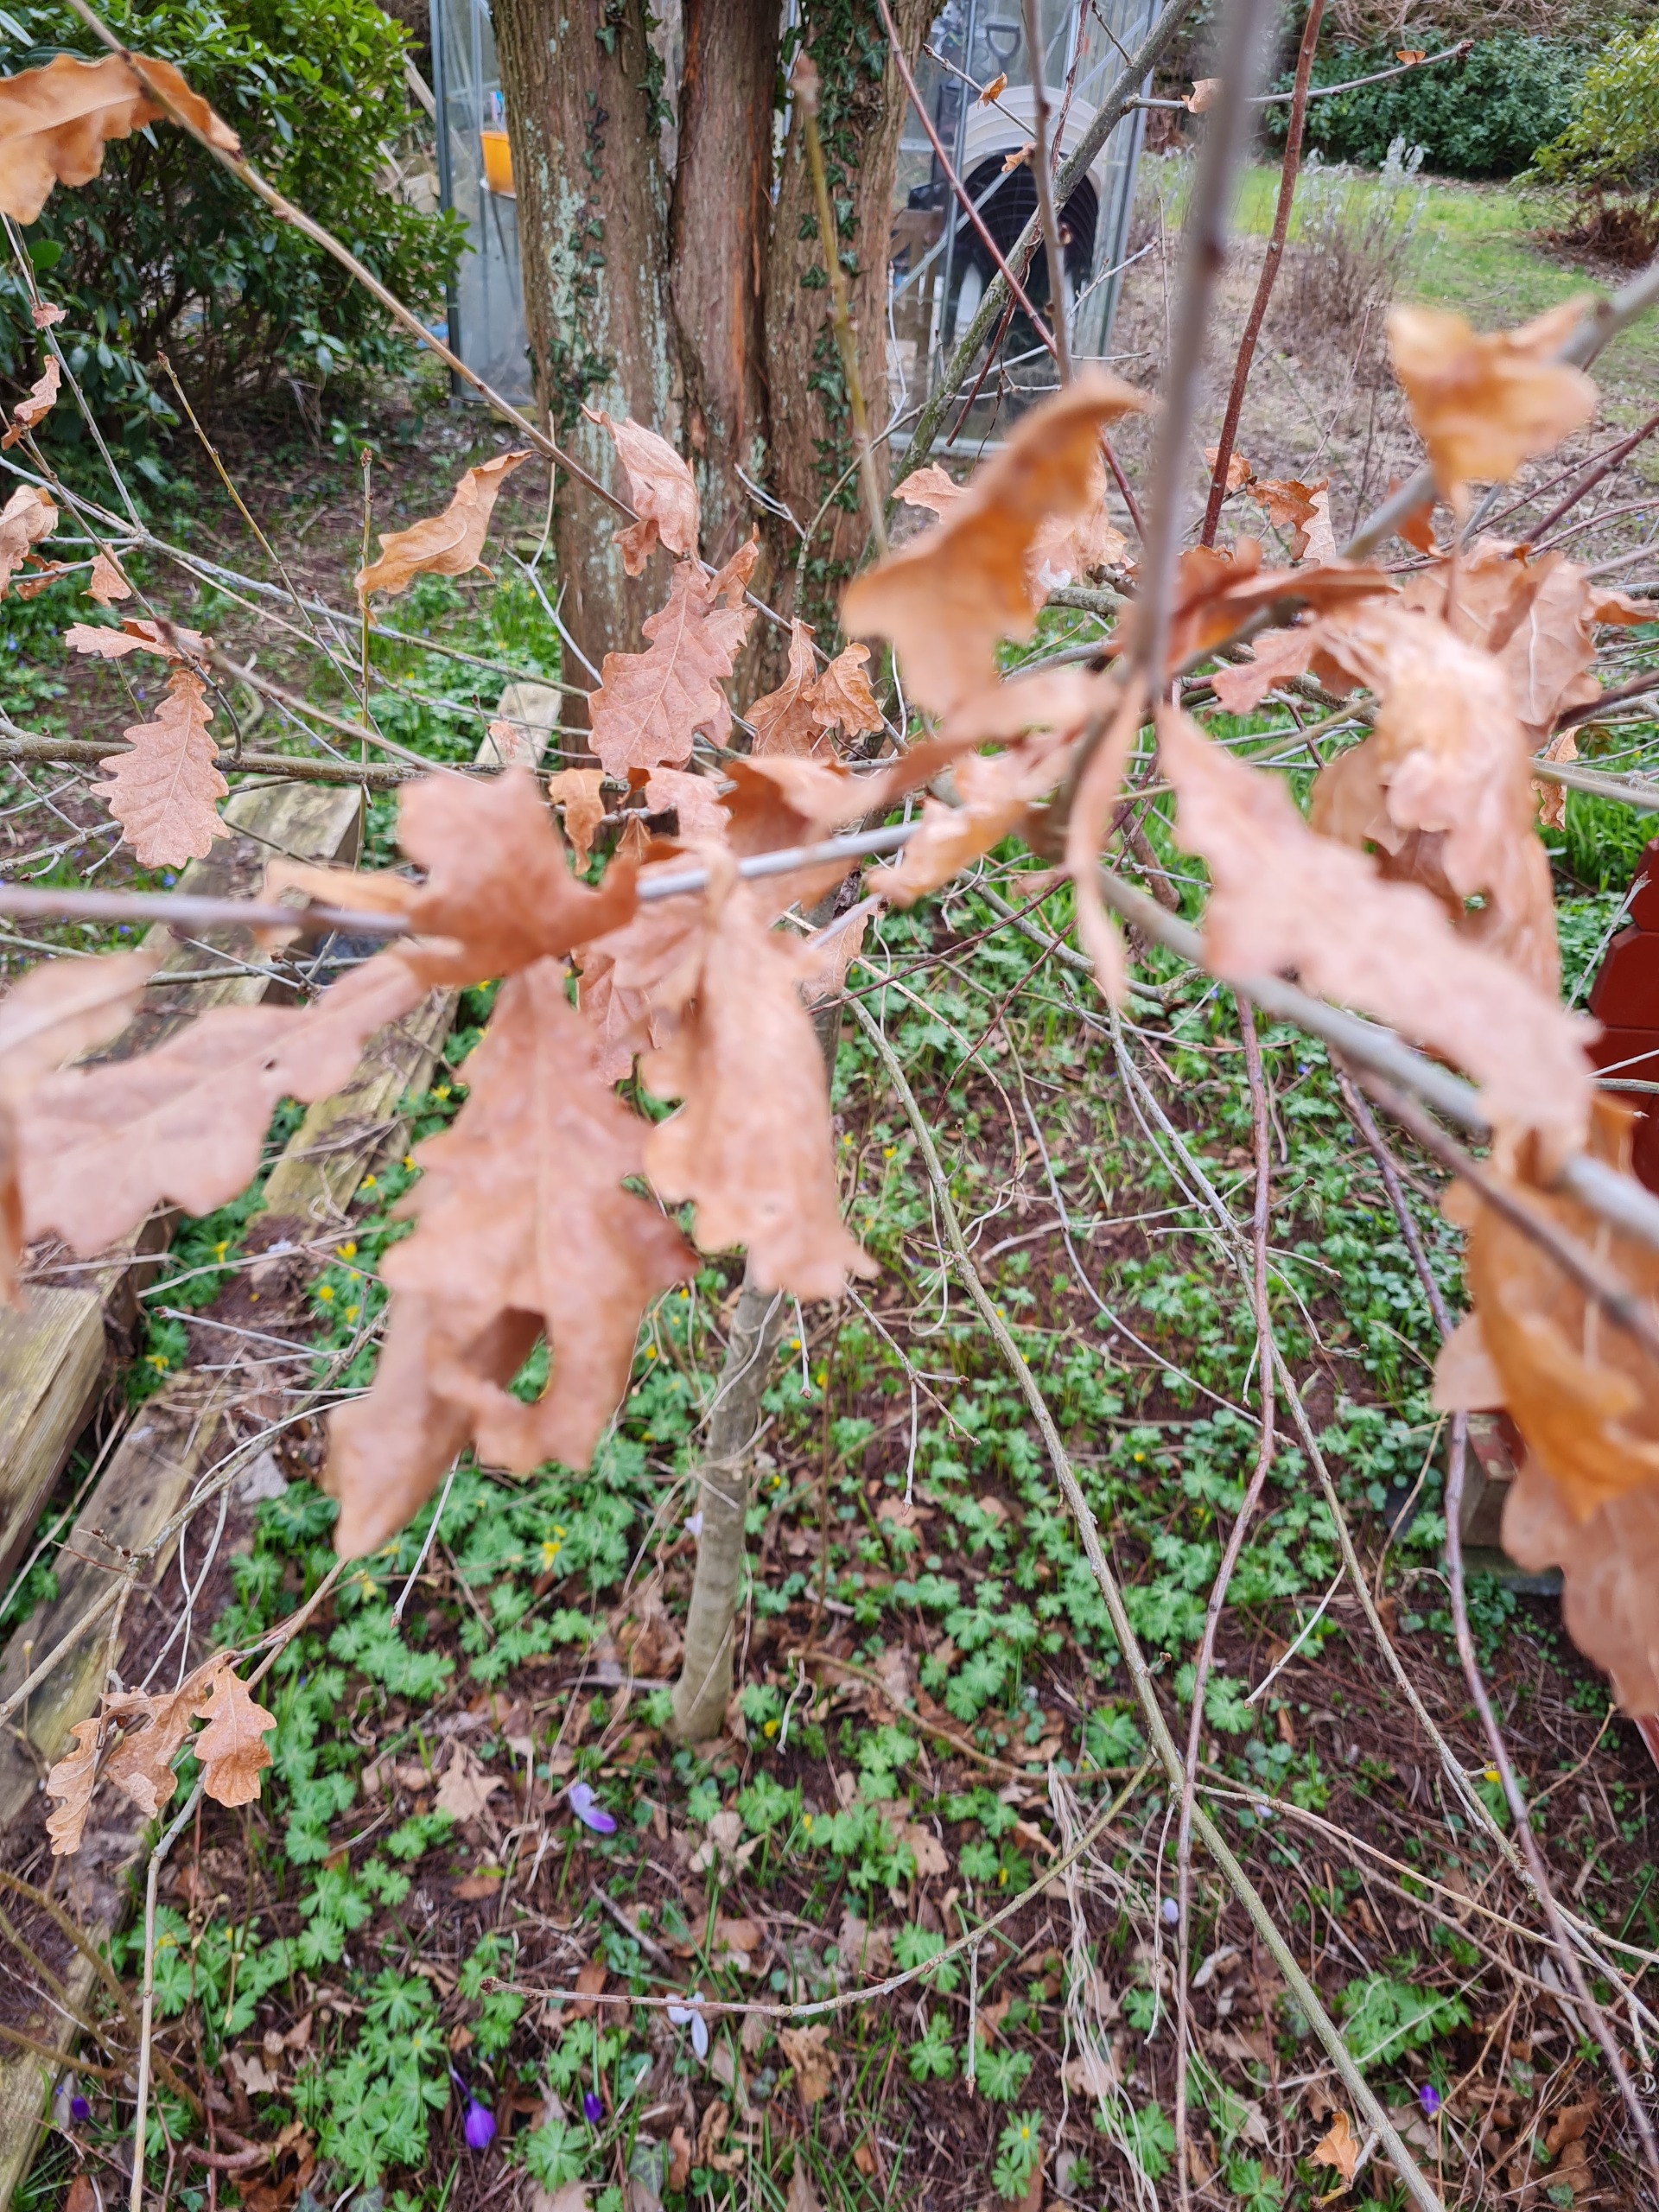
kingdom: Plantae
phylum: Tracheophyta
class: Magnoliopsida
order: Fagales
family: Fagaceae
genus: Quercus
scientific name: Quercus robur
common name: Stilk-eg/almindelig eg
